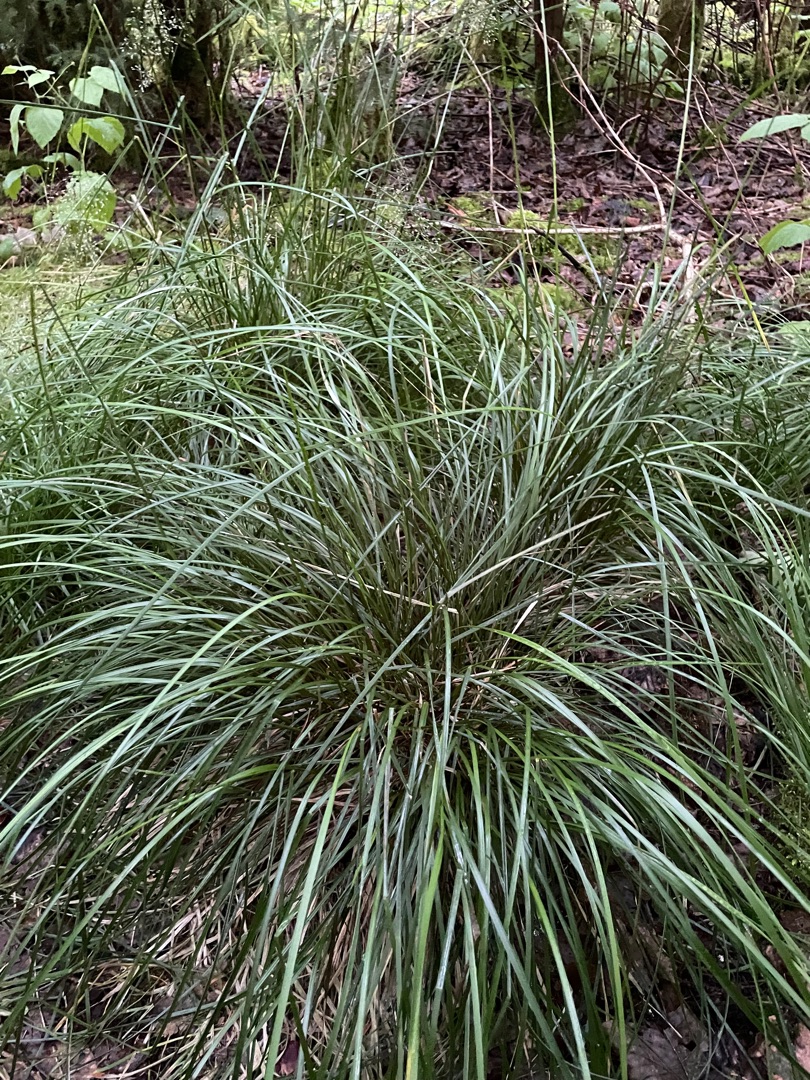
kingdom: Plantae
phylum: Tracheophyta
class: Liliopsida
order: Poales
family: Poaceae
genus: Deschampsia
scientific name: Deschampsia cespitosa
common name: Mose-bunke
